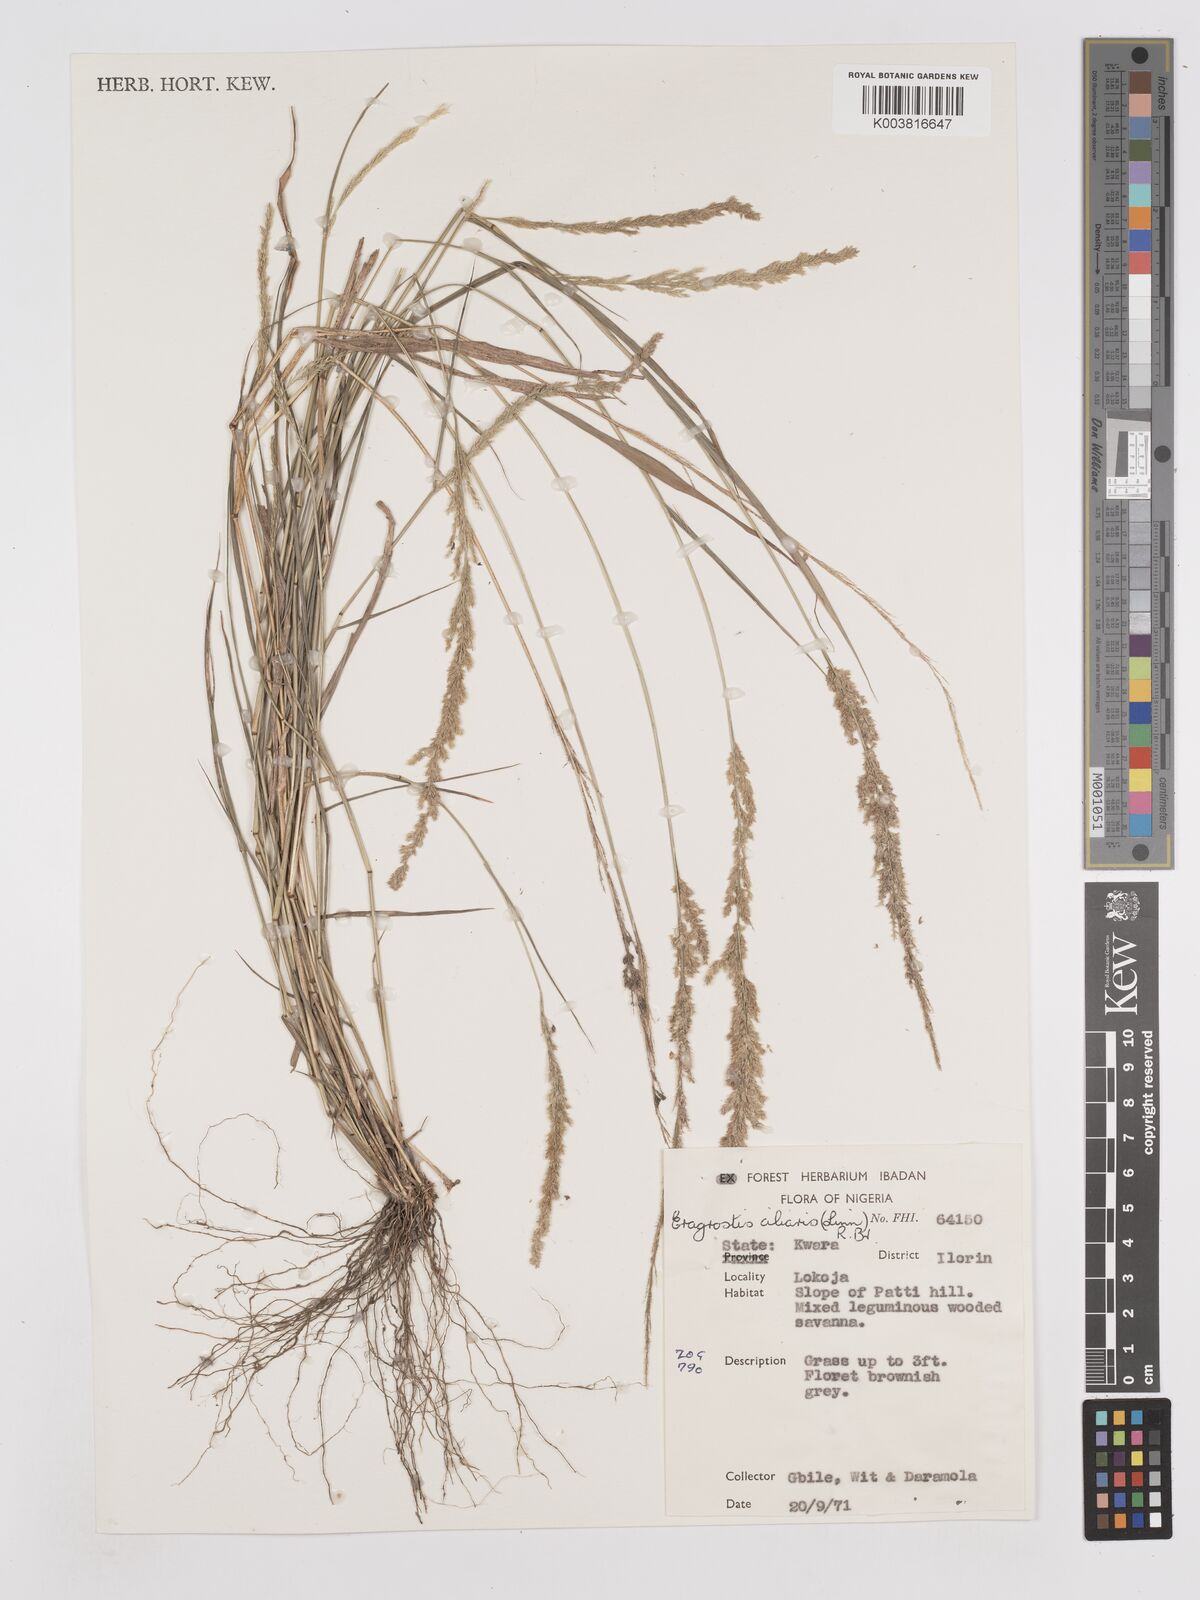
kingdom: Plantae
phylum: Tracheophyta
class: Liliopsida
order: Poales
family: Poaceae
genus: Eragrostis
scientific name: Eragrostis ciliaris
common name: Gophertail lovegrass
